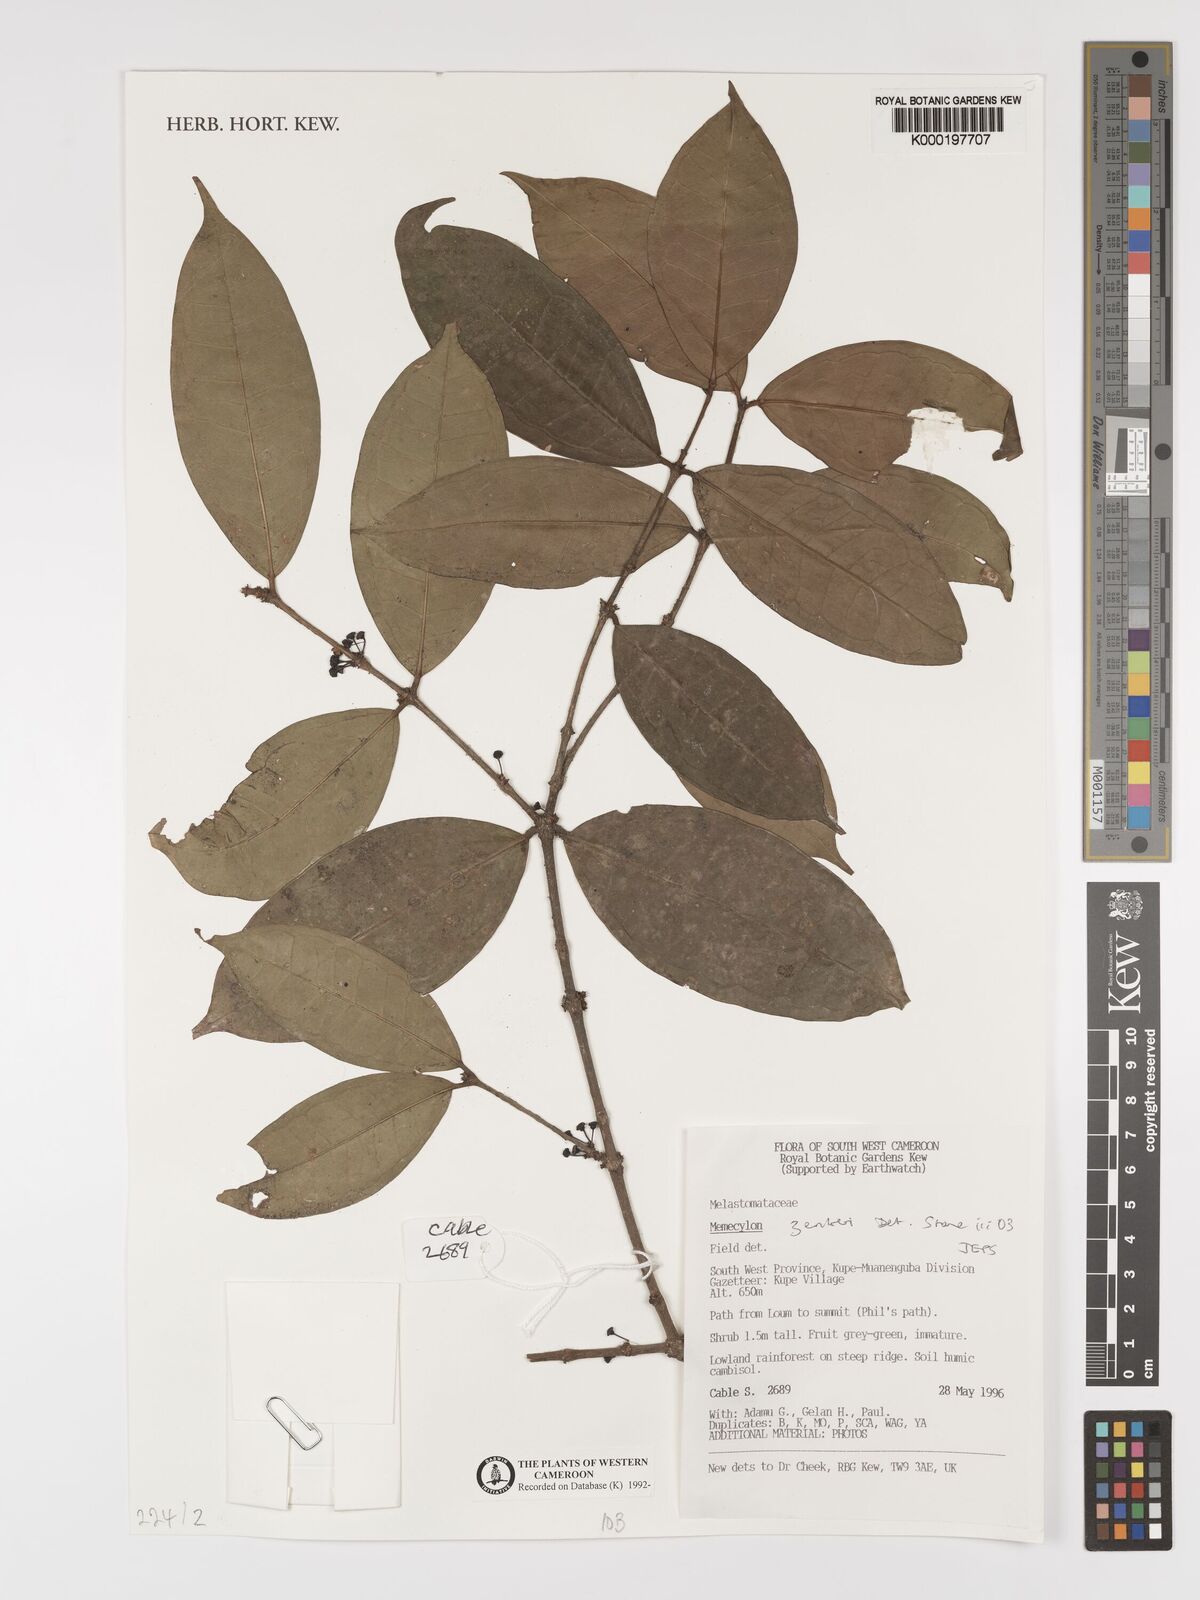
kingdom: Plantae
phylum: Tracheophyta
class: Magnoliopsida
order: Myrtales
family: Melastomataceae
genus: Memecylon
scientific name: Memecylon zenkeri
